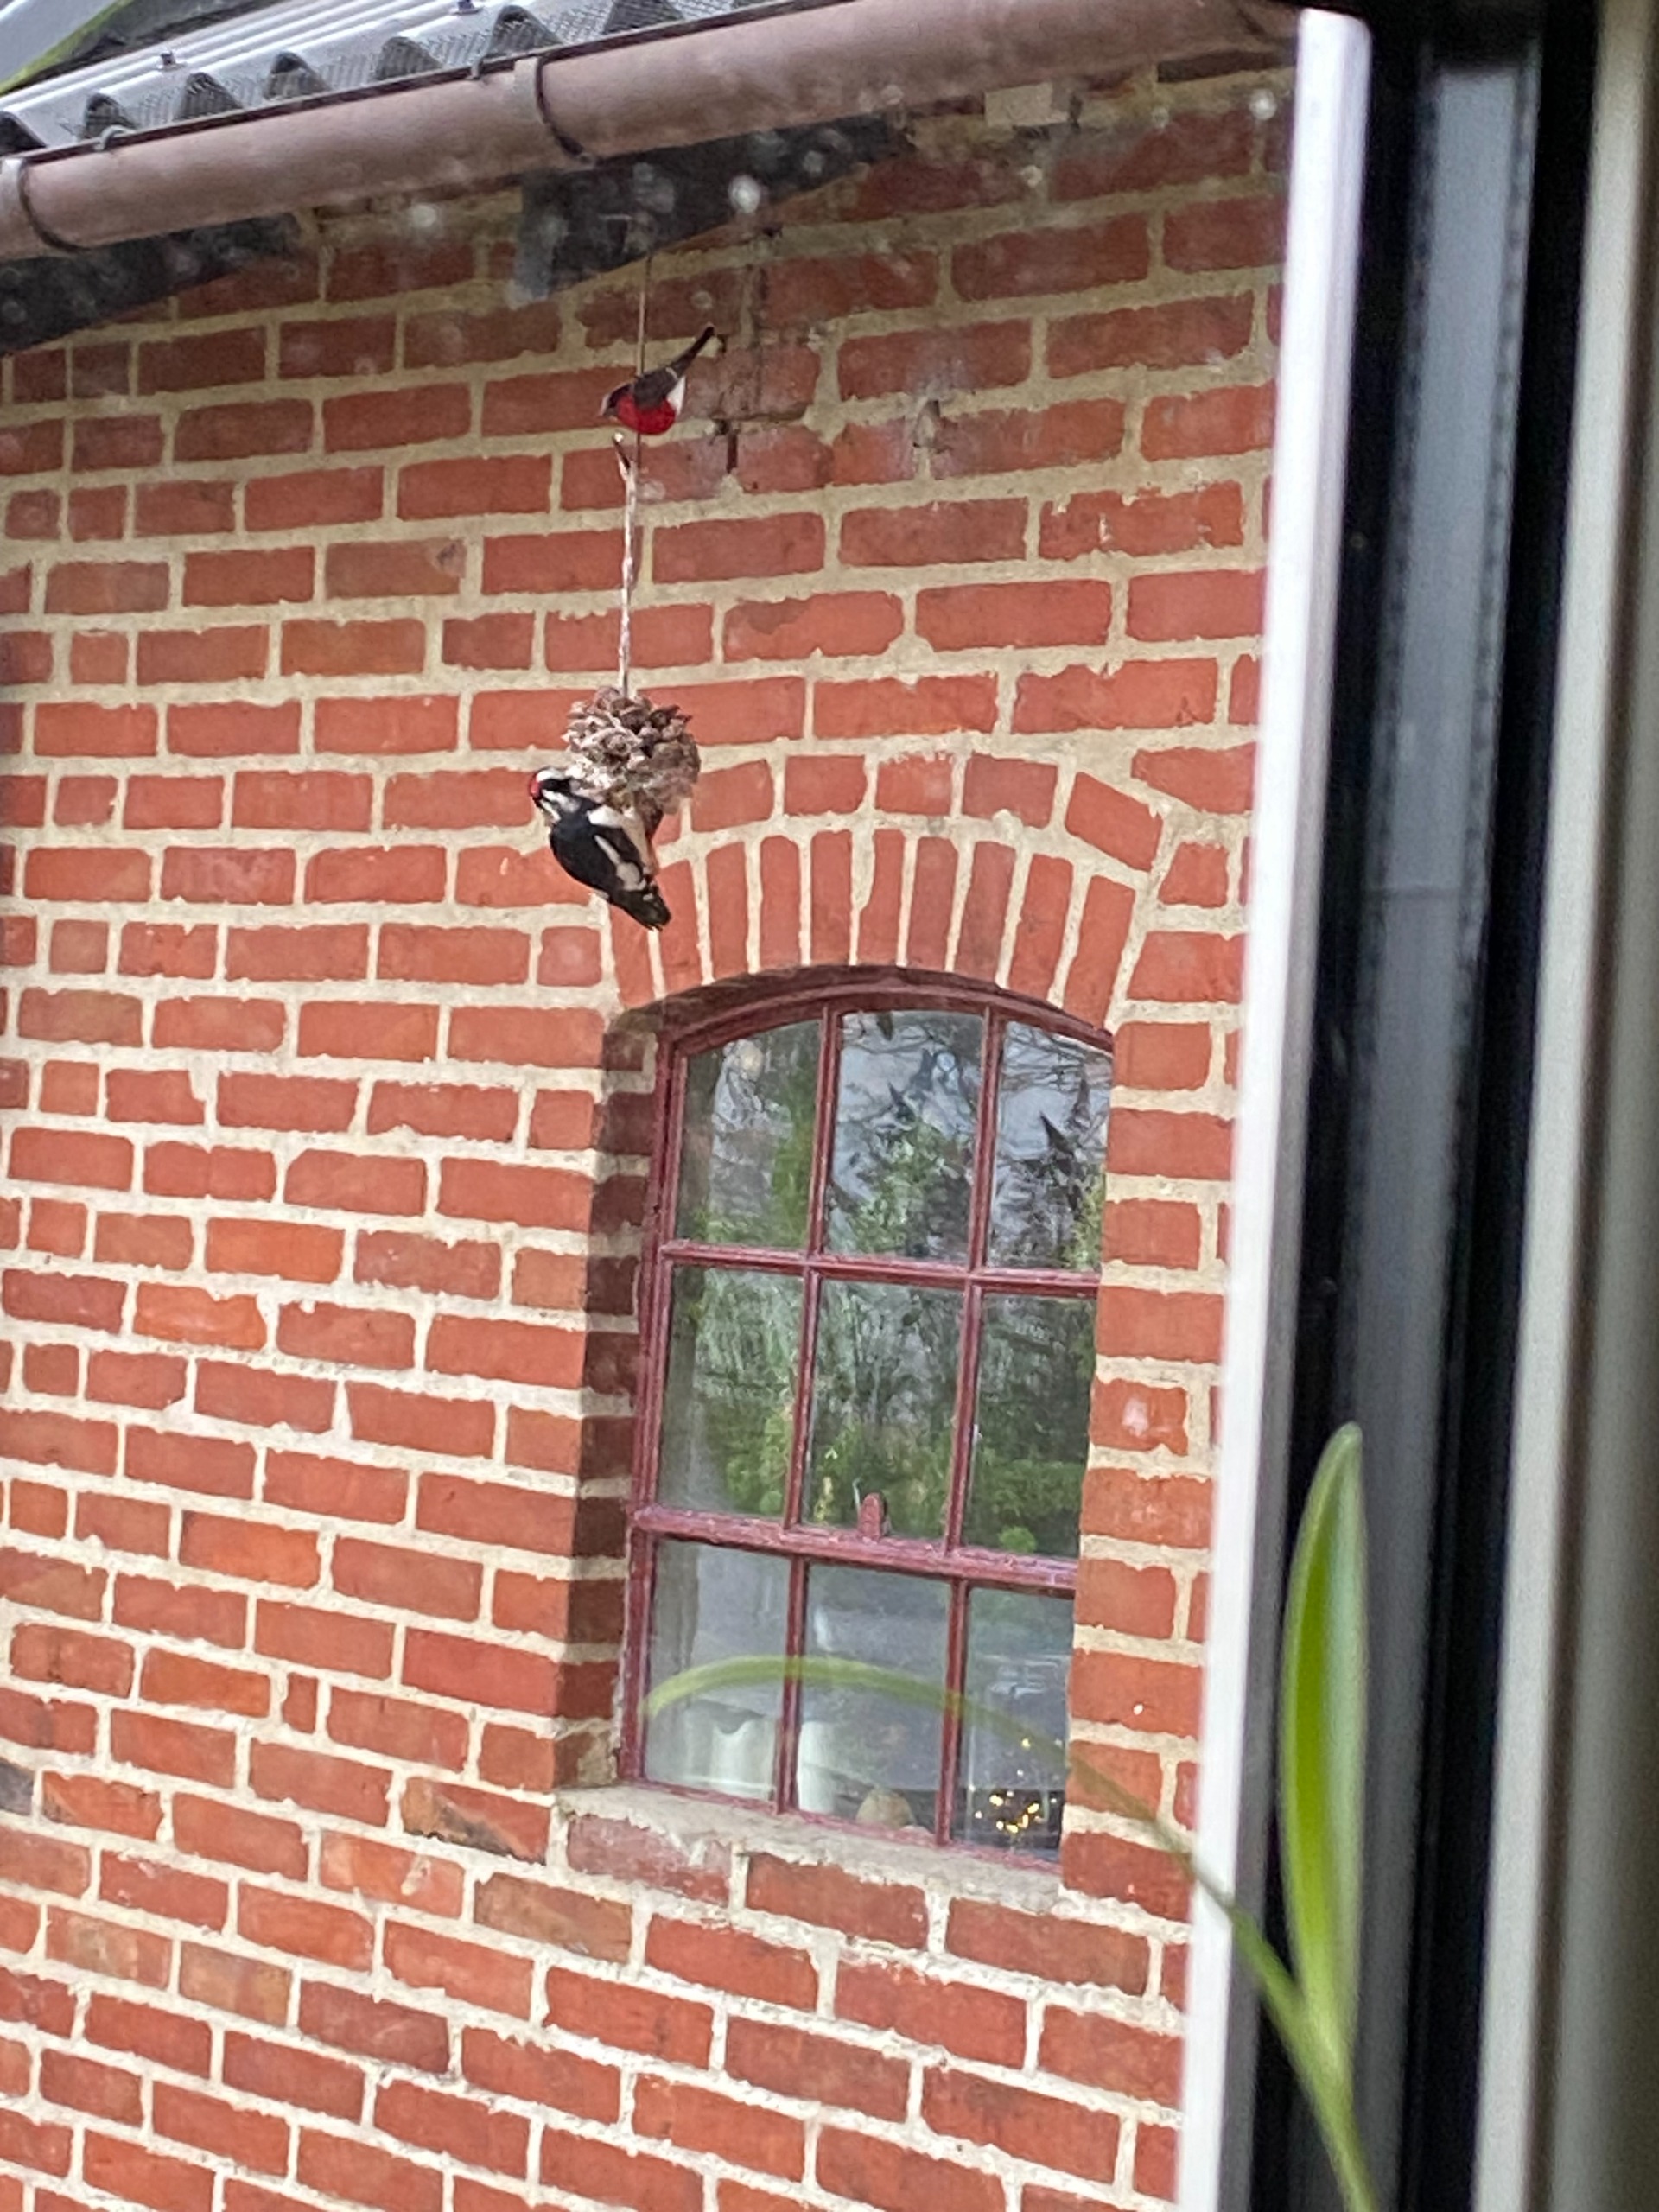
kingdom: Animalia
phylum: Chordata
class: Aves
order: Piciformes
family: Picidae
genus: Dendrocopos
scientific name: Dendrocopos major
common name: Stor flagspætte
